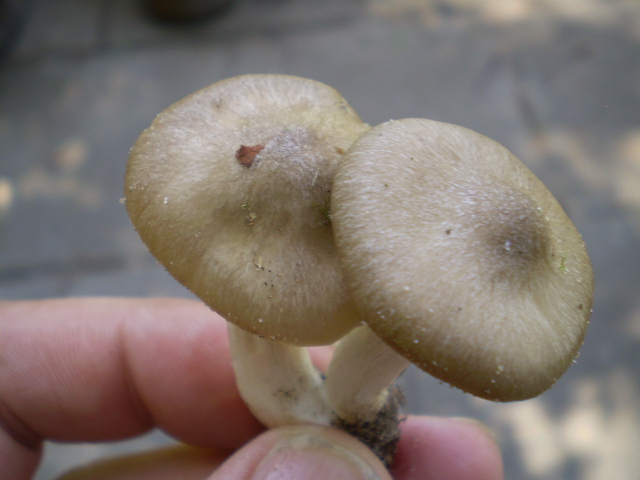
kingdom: Fungi
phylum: Basidiomycota
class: Agaricomycetes
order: Agaricales
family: Entolomataceae
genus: Entoloma
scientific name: Entoloma clypeatum
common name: flammet rødblad
